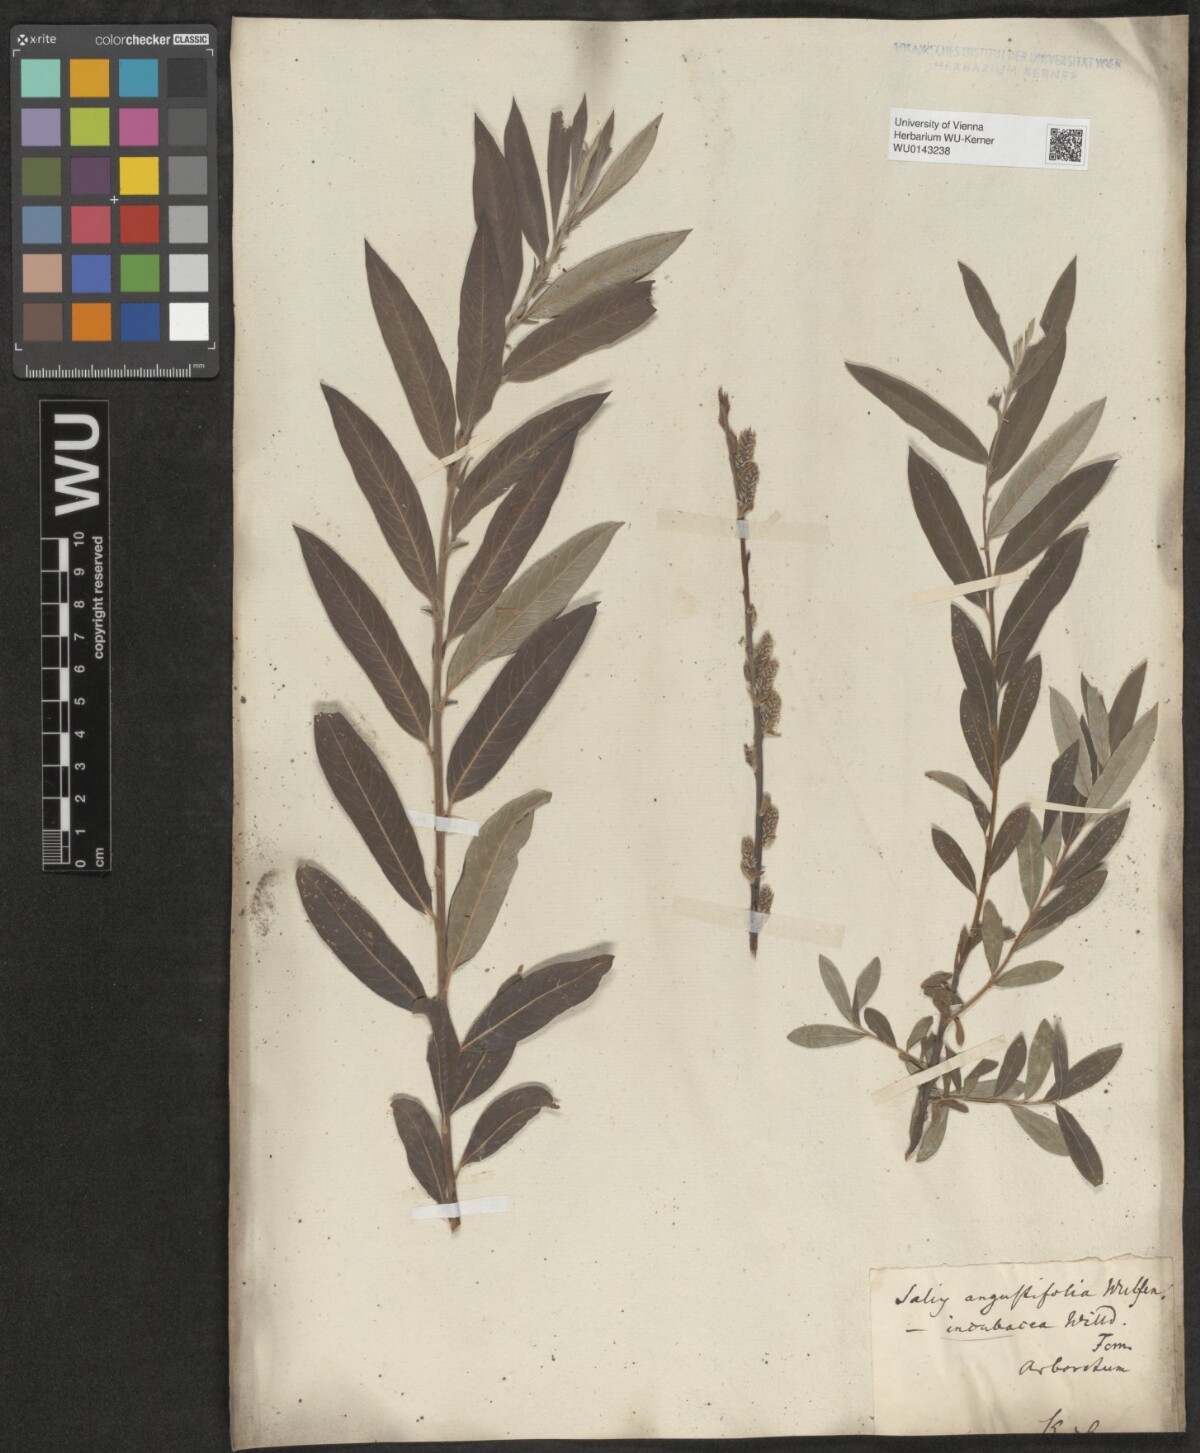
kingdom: Plantae
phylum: Tracheophyta
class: Magnoliopsida
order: Malpighiales
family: Salicaceae
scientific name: Salicaceae
